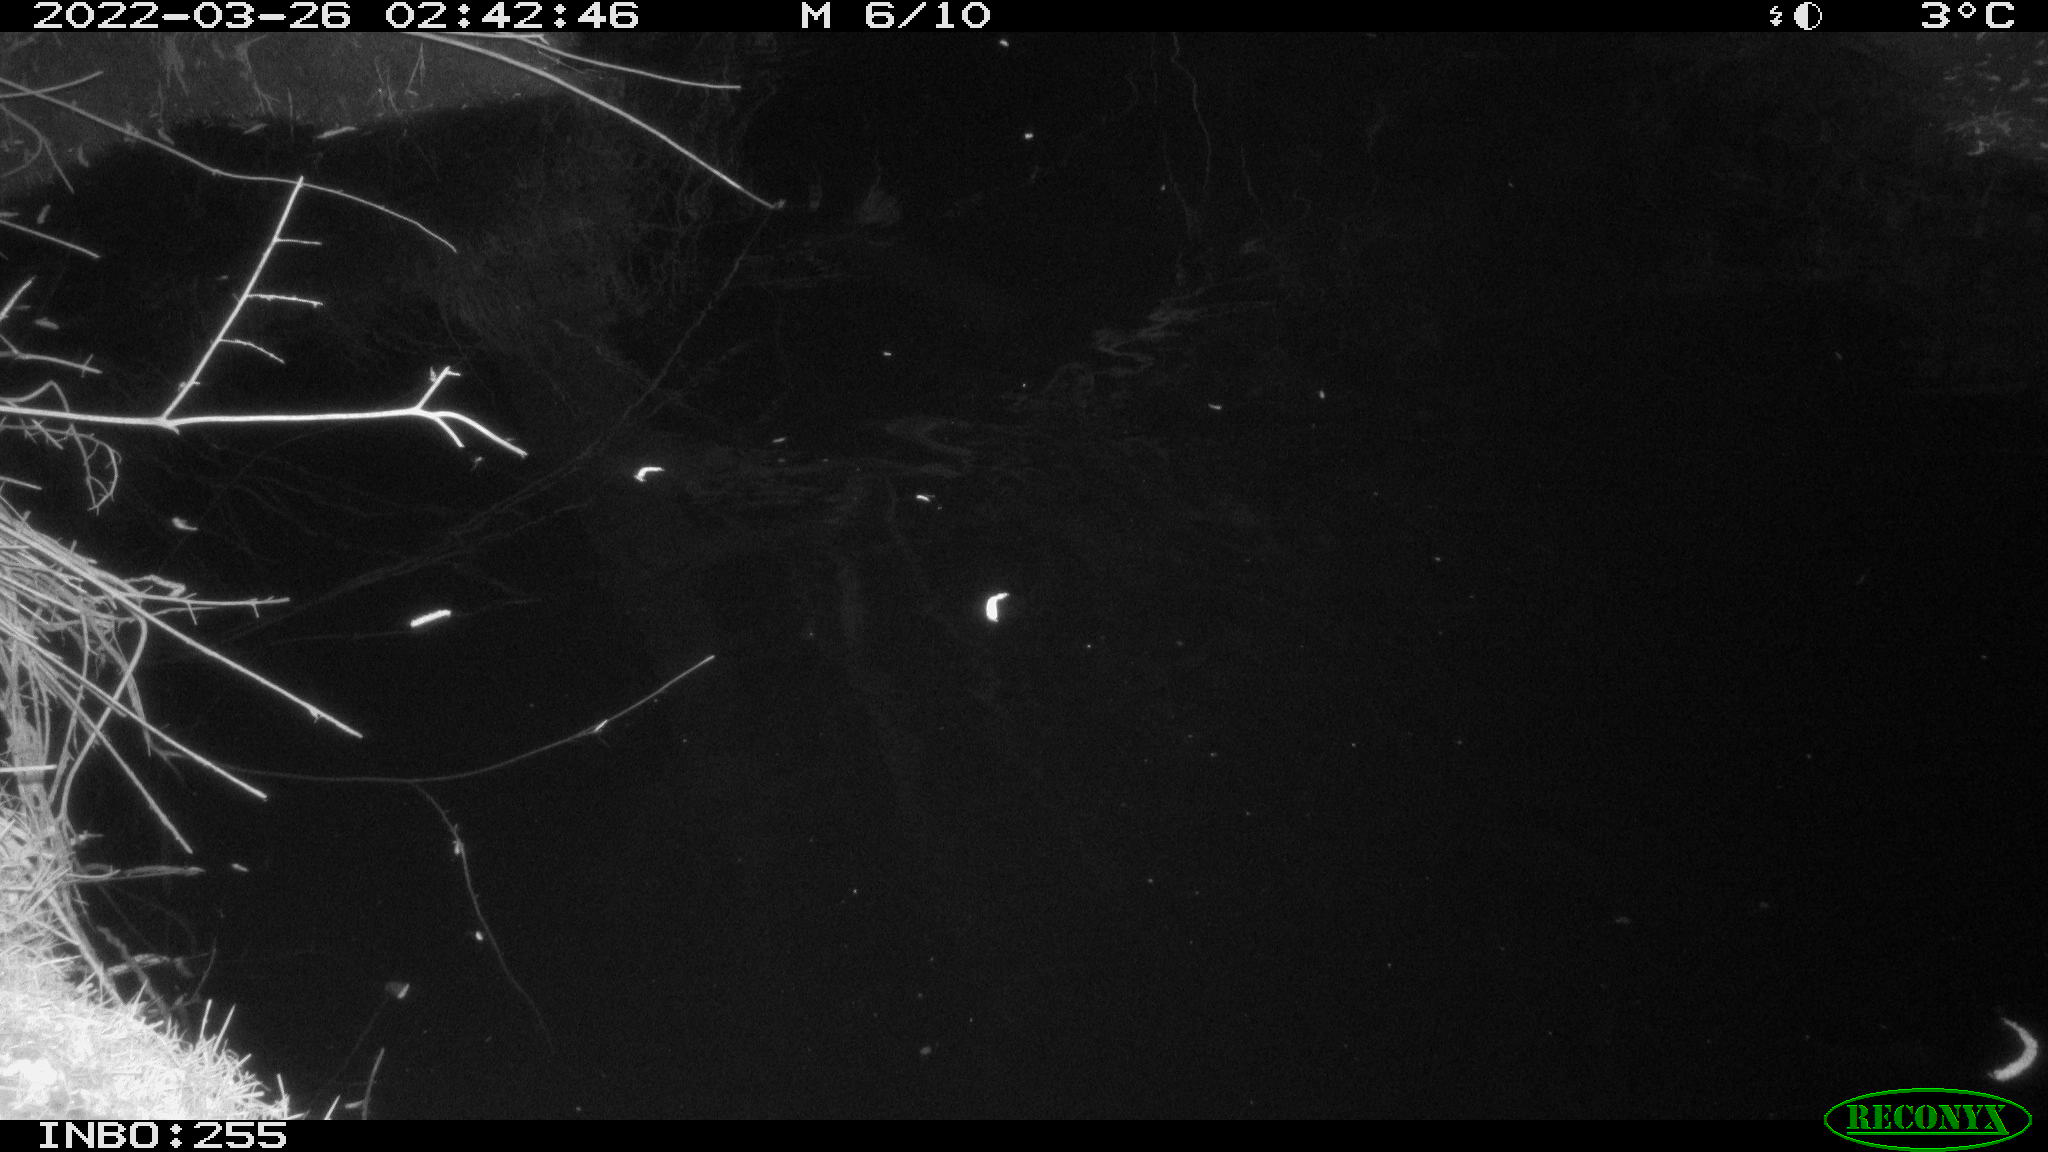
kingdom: Animalia
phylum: Chordata
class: Aves
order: Anseriformes
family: Anatidae
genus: Anas
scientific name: Anas platyrhynchos
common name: Mallard
